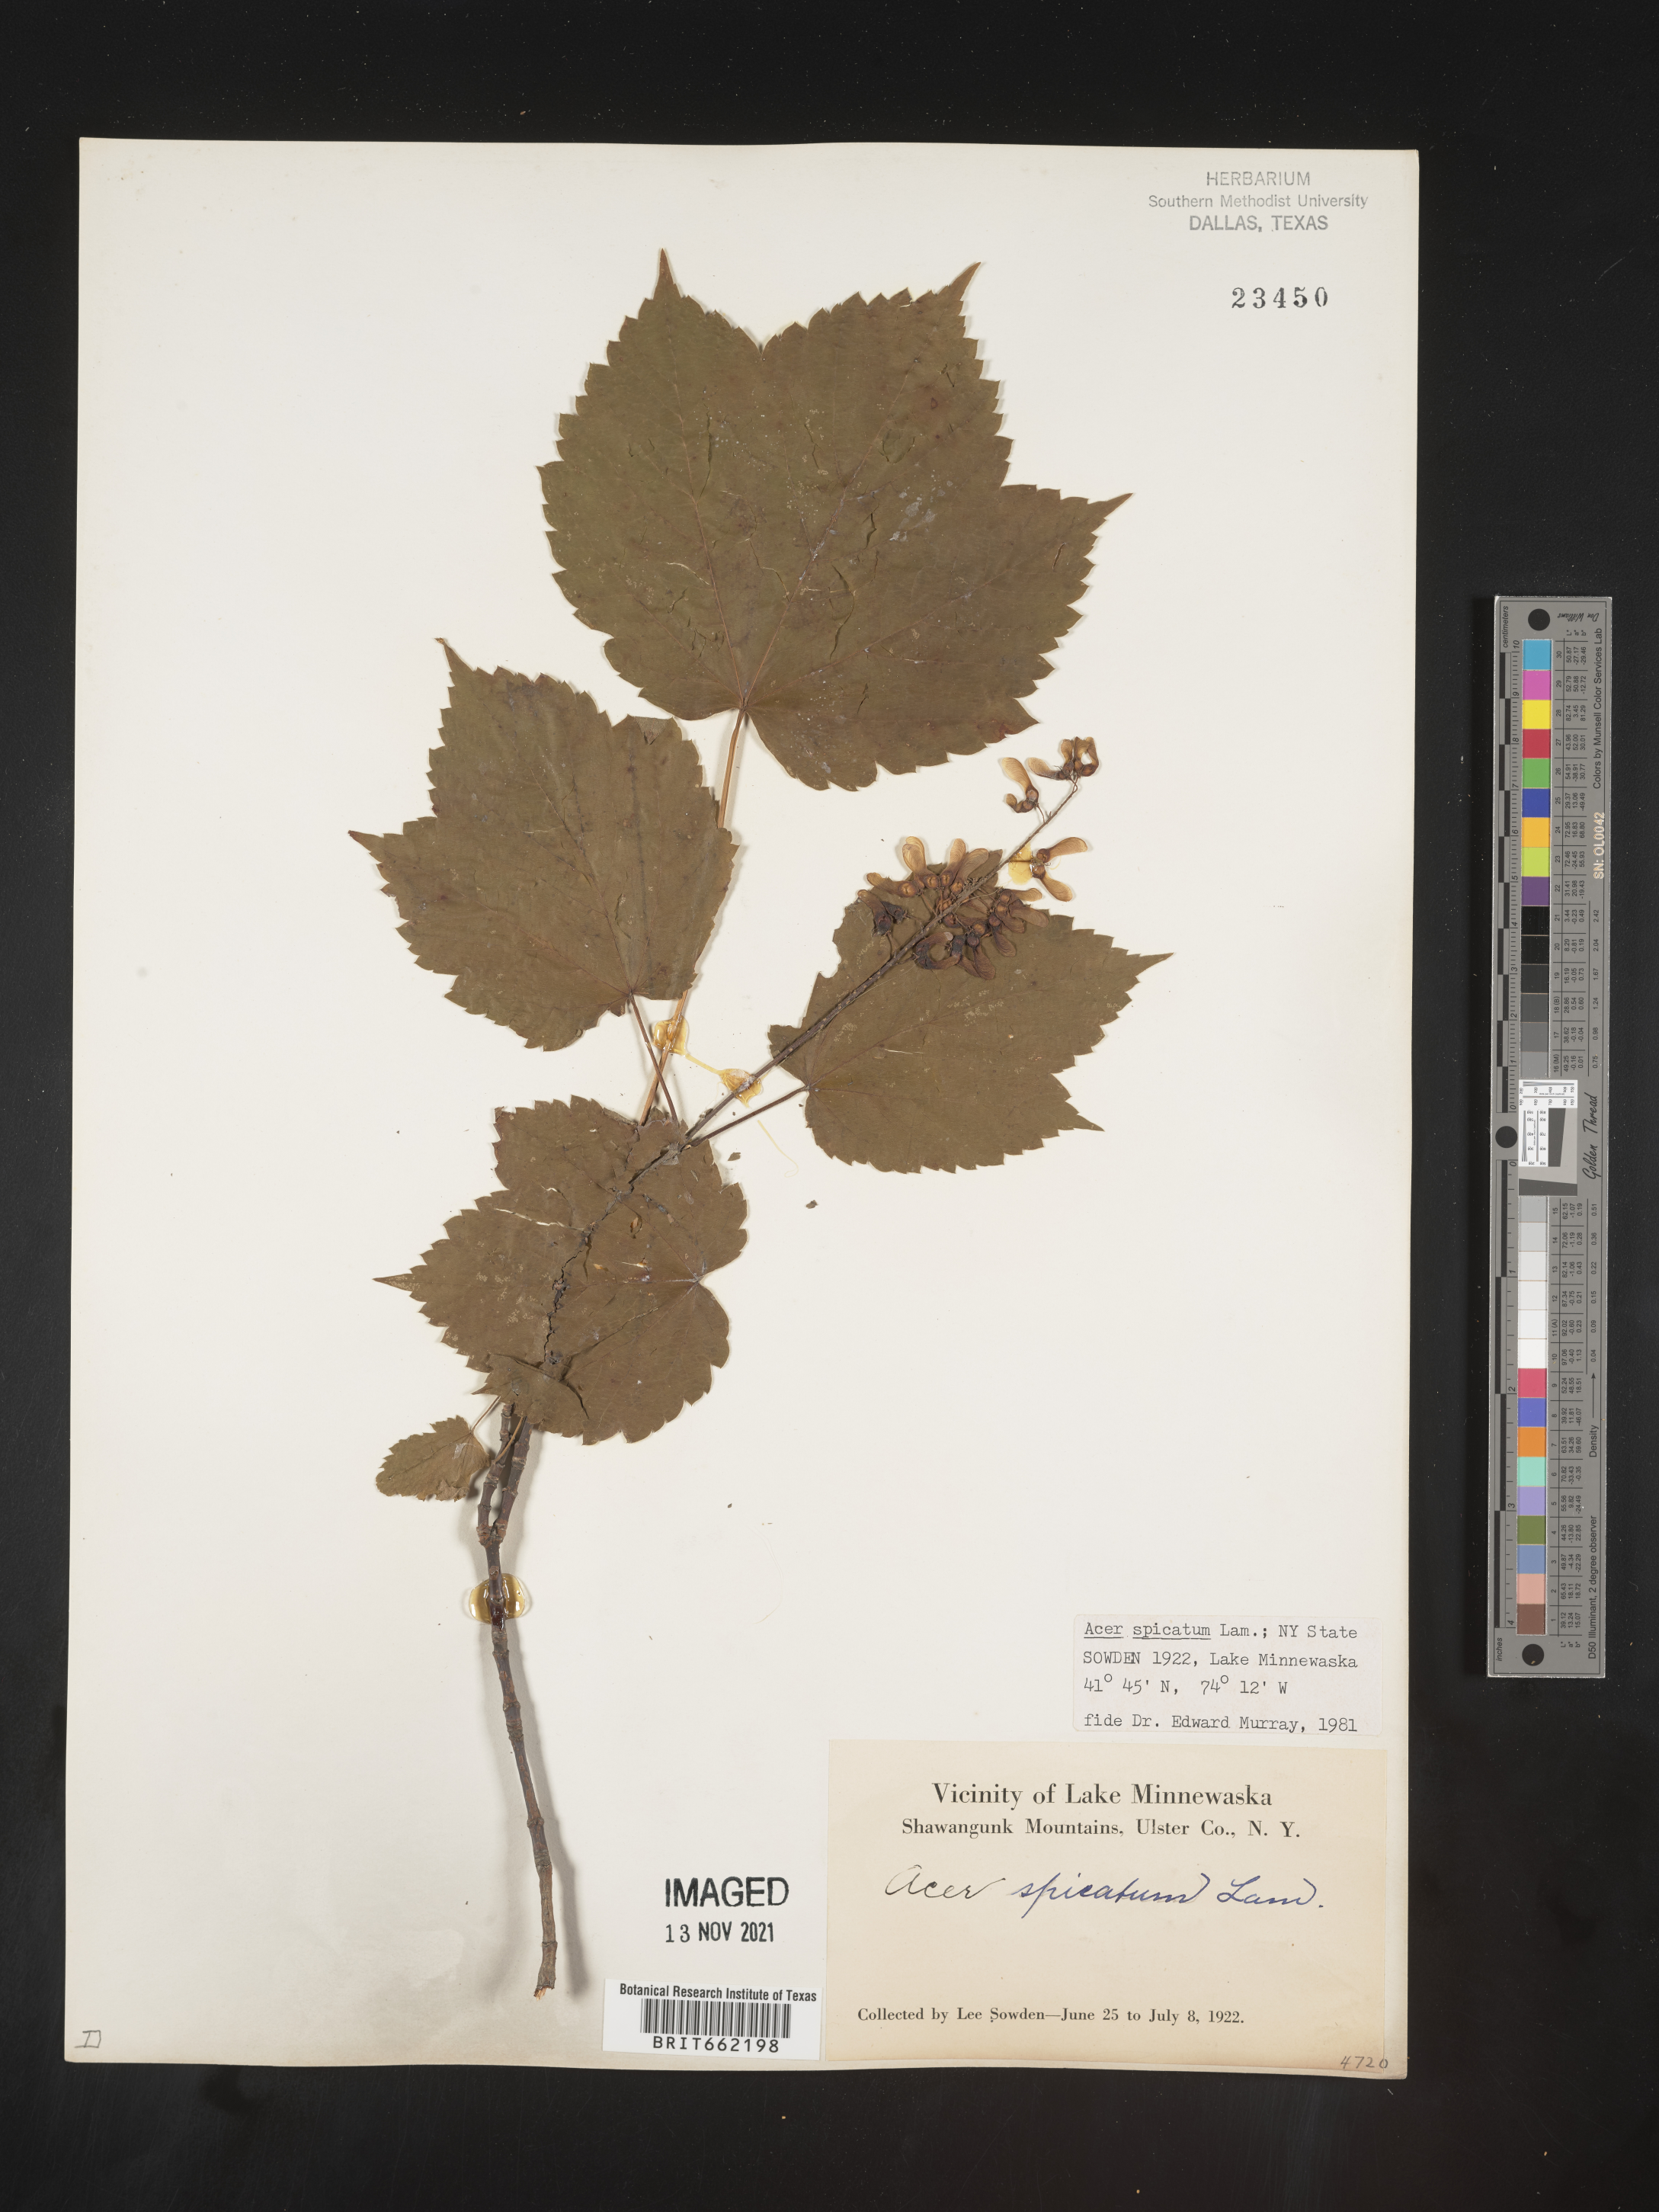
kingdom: Plantae
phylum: Tracheophyta
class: Magnoliopsida
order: Sapindales
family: Sapindaceae
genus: Acer
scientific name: Acer spicatum
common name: Mountain maple
